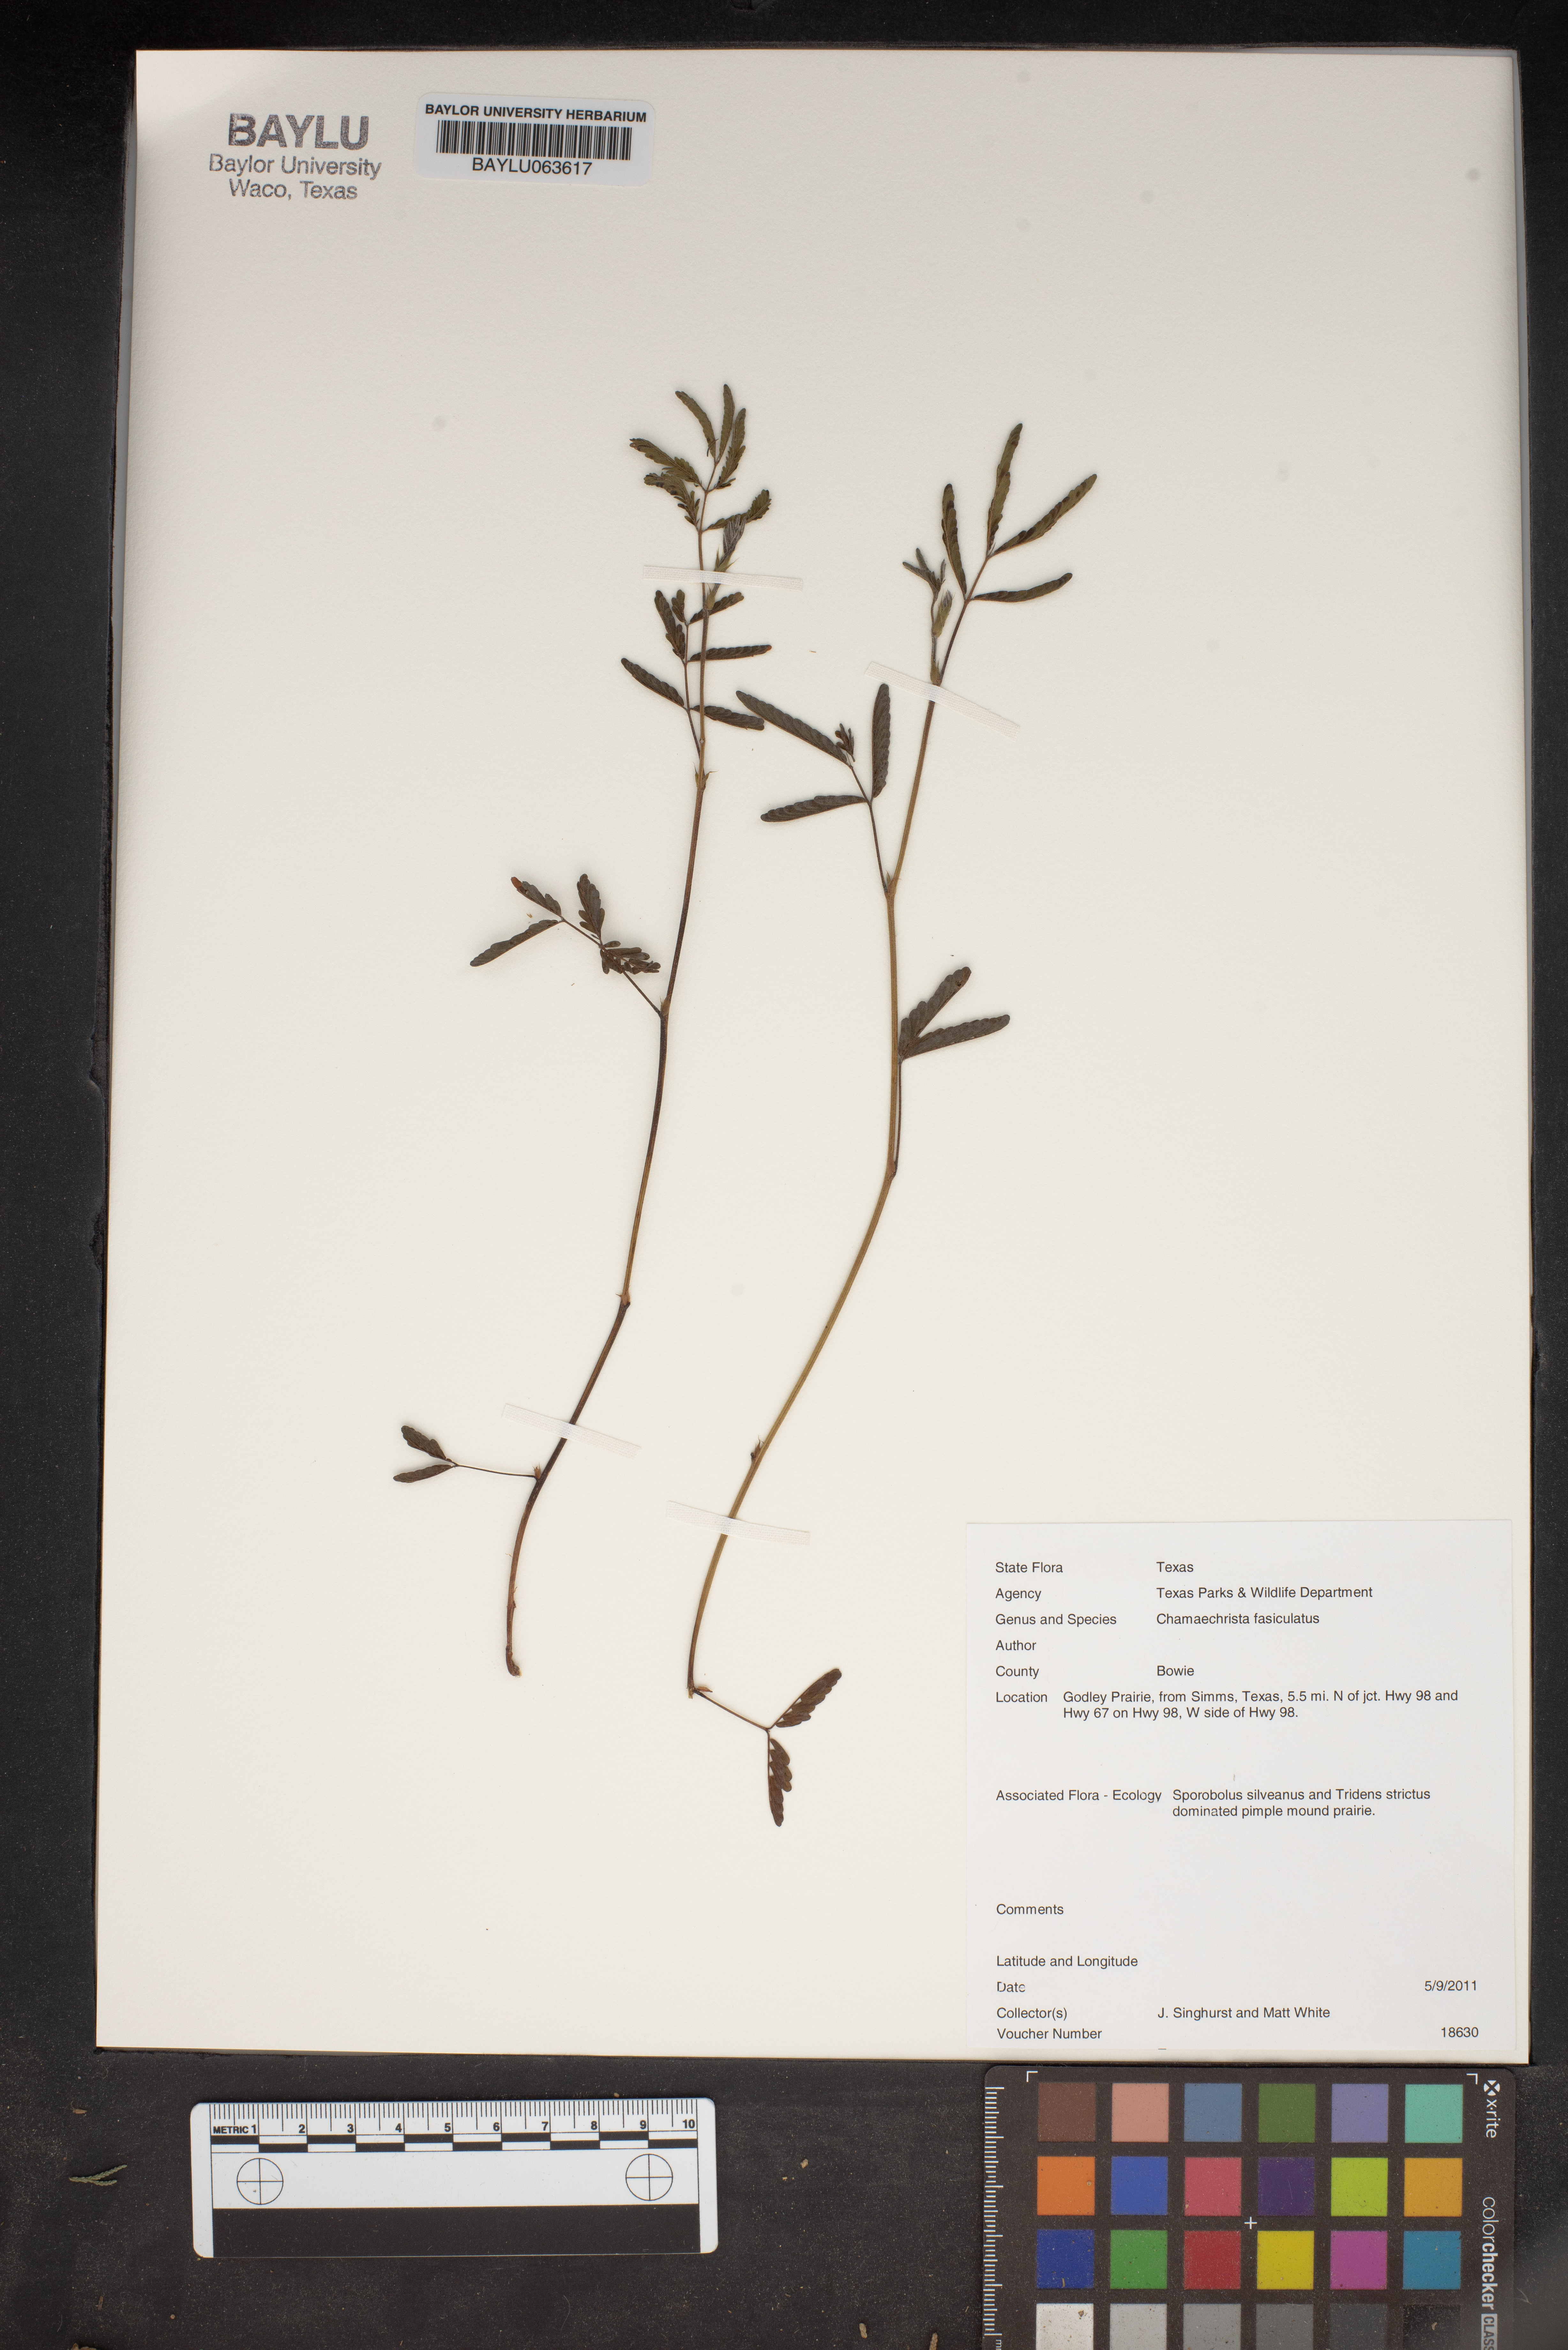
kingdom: Plantae
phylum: Tracheophyta
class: Magnoliopsida
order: Fabales
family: Fabaceae
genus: Chamaecrista
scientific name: Chamaecrista fasciculata
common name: Golden cassia
